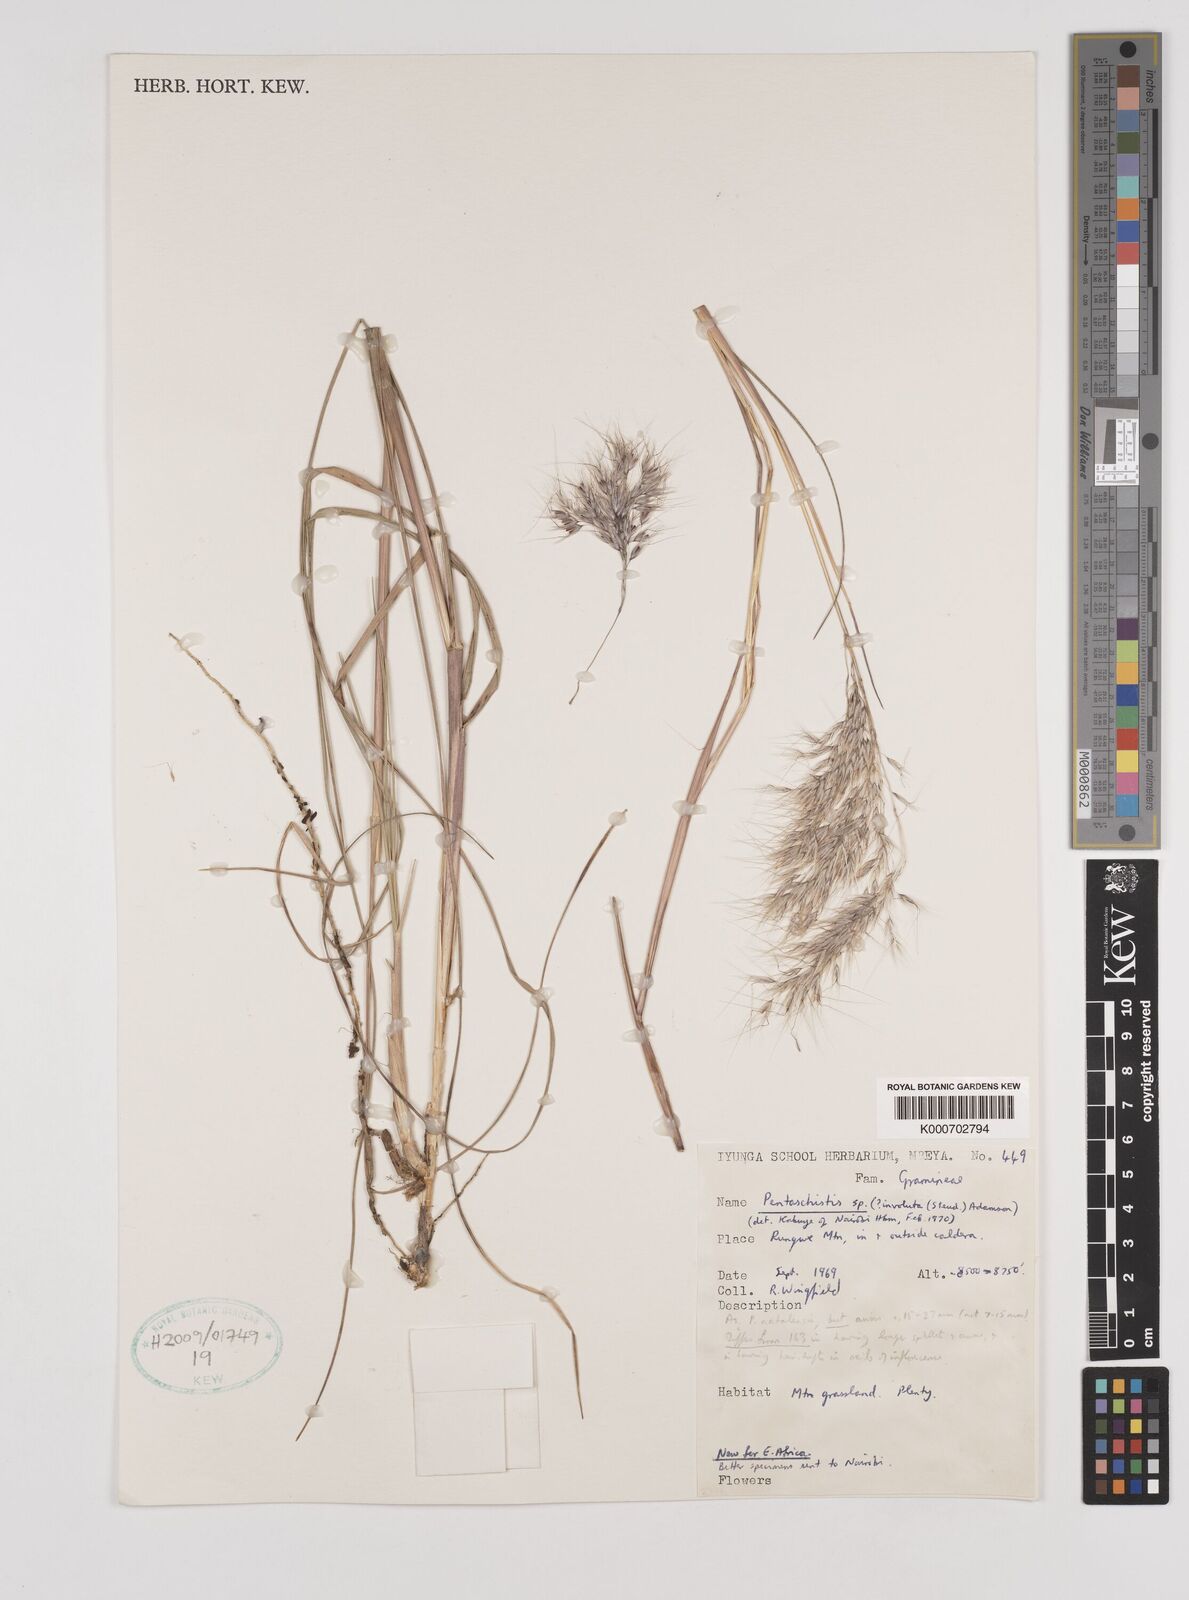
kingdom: Plantae
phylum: Tracheophyta
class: Liliopsida
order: Poales
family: Poaceae
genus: Pentameris
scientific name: Pentameris natalensis
